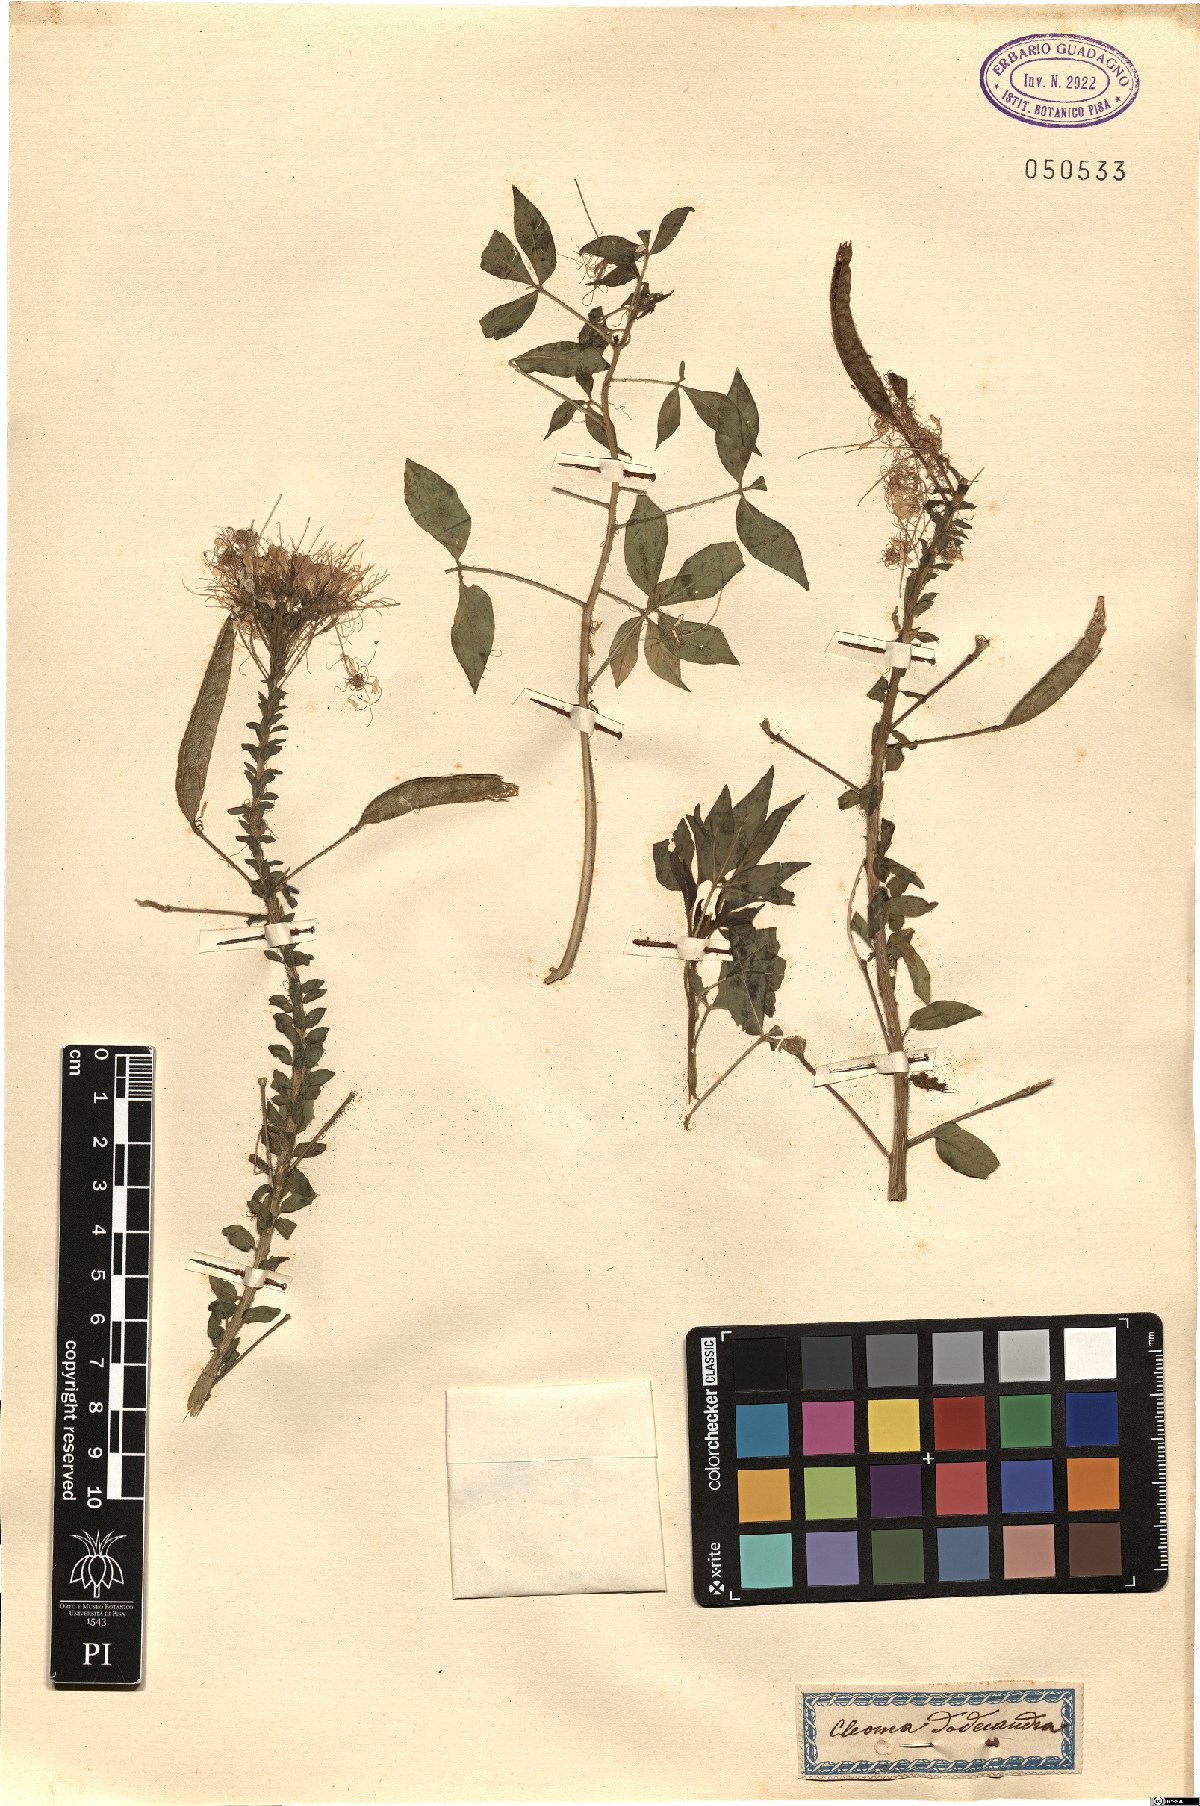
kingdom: Plantae
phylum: Tracheophyta
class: Magnoliopsida
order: Brassicales
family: Cleomaceae
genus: Polanisia
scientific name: Polanisia dodecandra
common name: Clammyweed
